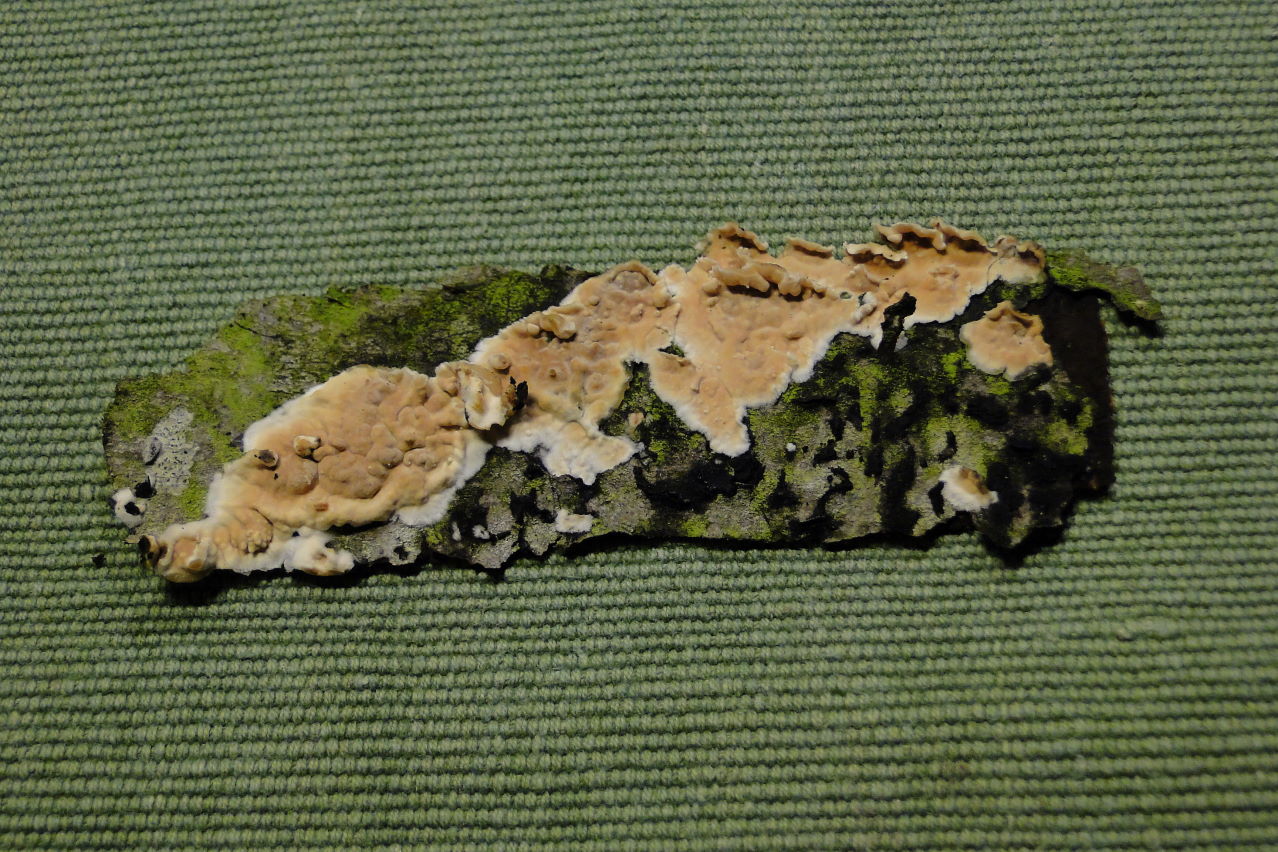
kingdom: Fungi
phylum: Basidiomycota
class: Agaricomycetes
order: Agaricales
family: Physalacriaceae
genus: Cylindrobasidium
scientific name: Cylindrobasidium evolvens
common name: sprækkehinde
